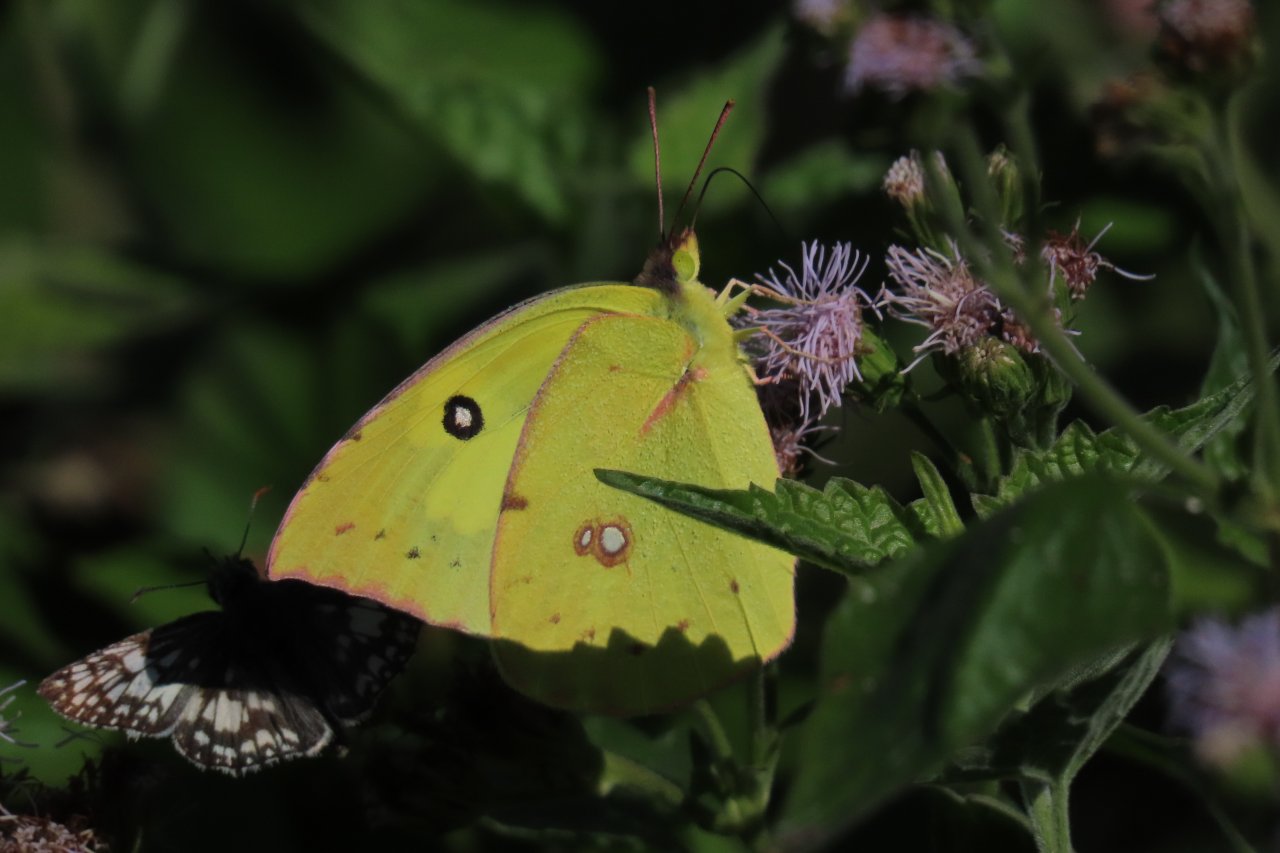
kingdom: Animalia
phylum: Arthropoda
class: Insecta
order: Lepidoptera
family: Pieridae
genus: Zerene
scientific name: Zerene cesonia
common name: Southern Dogface
